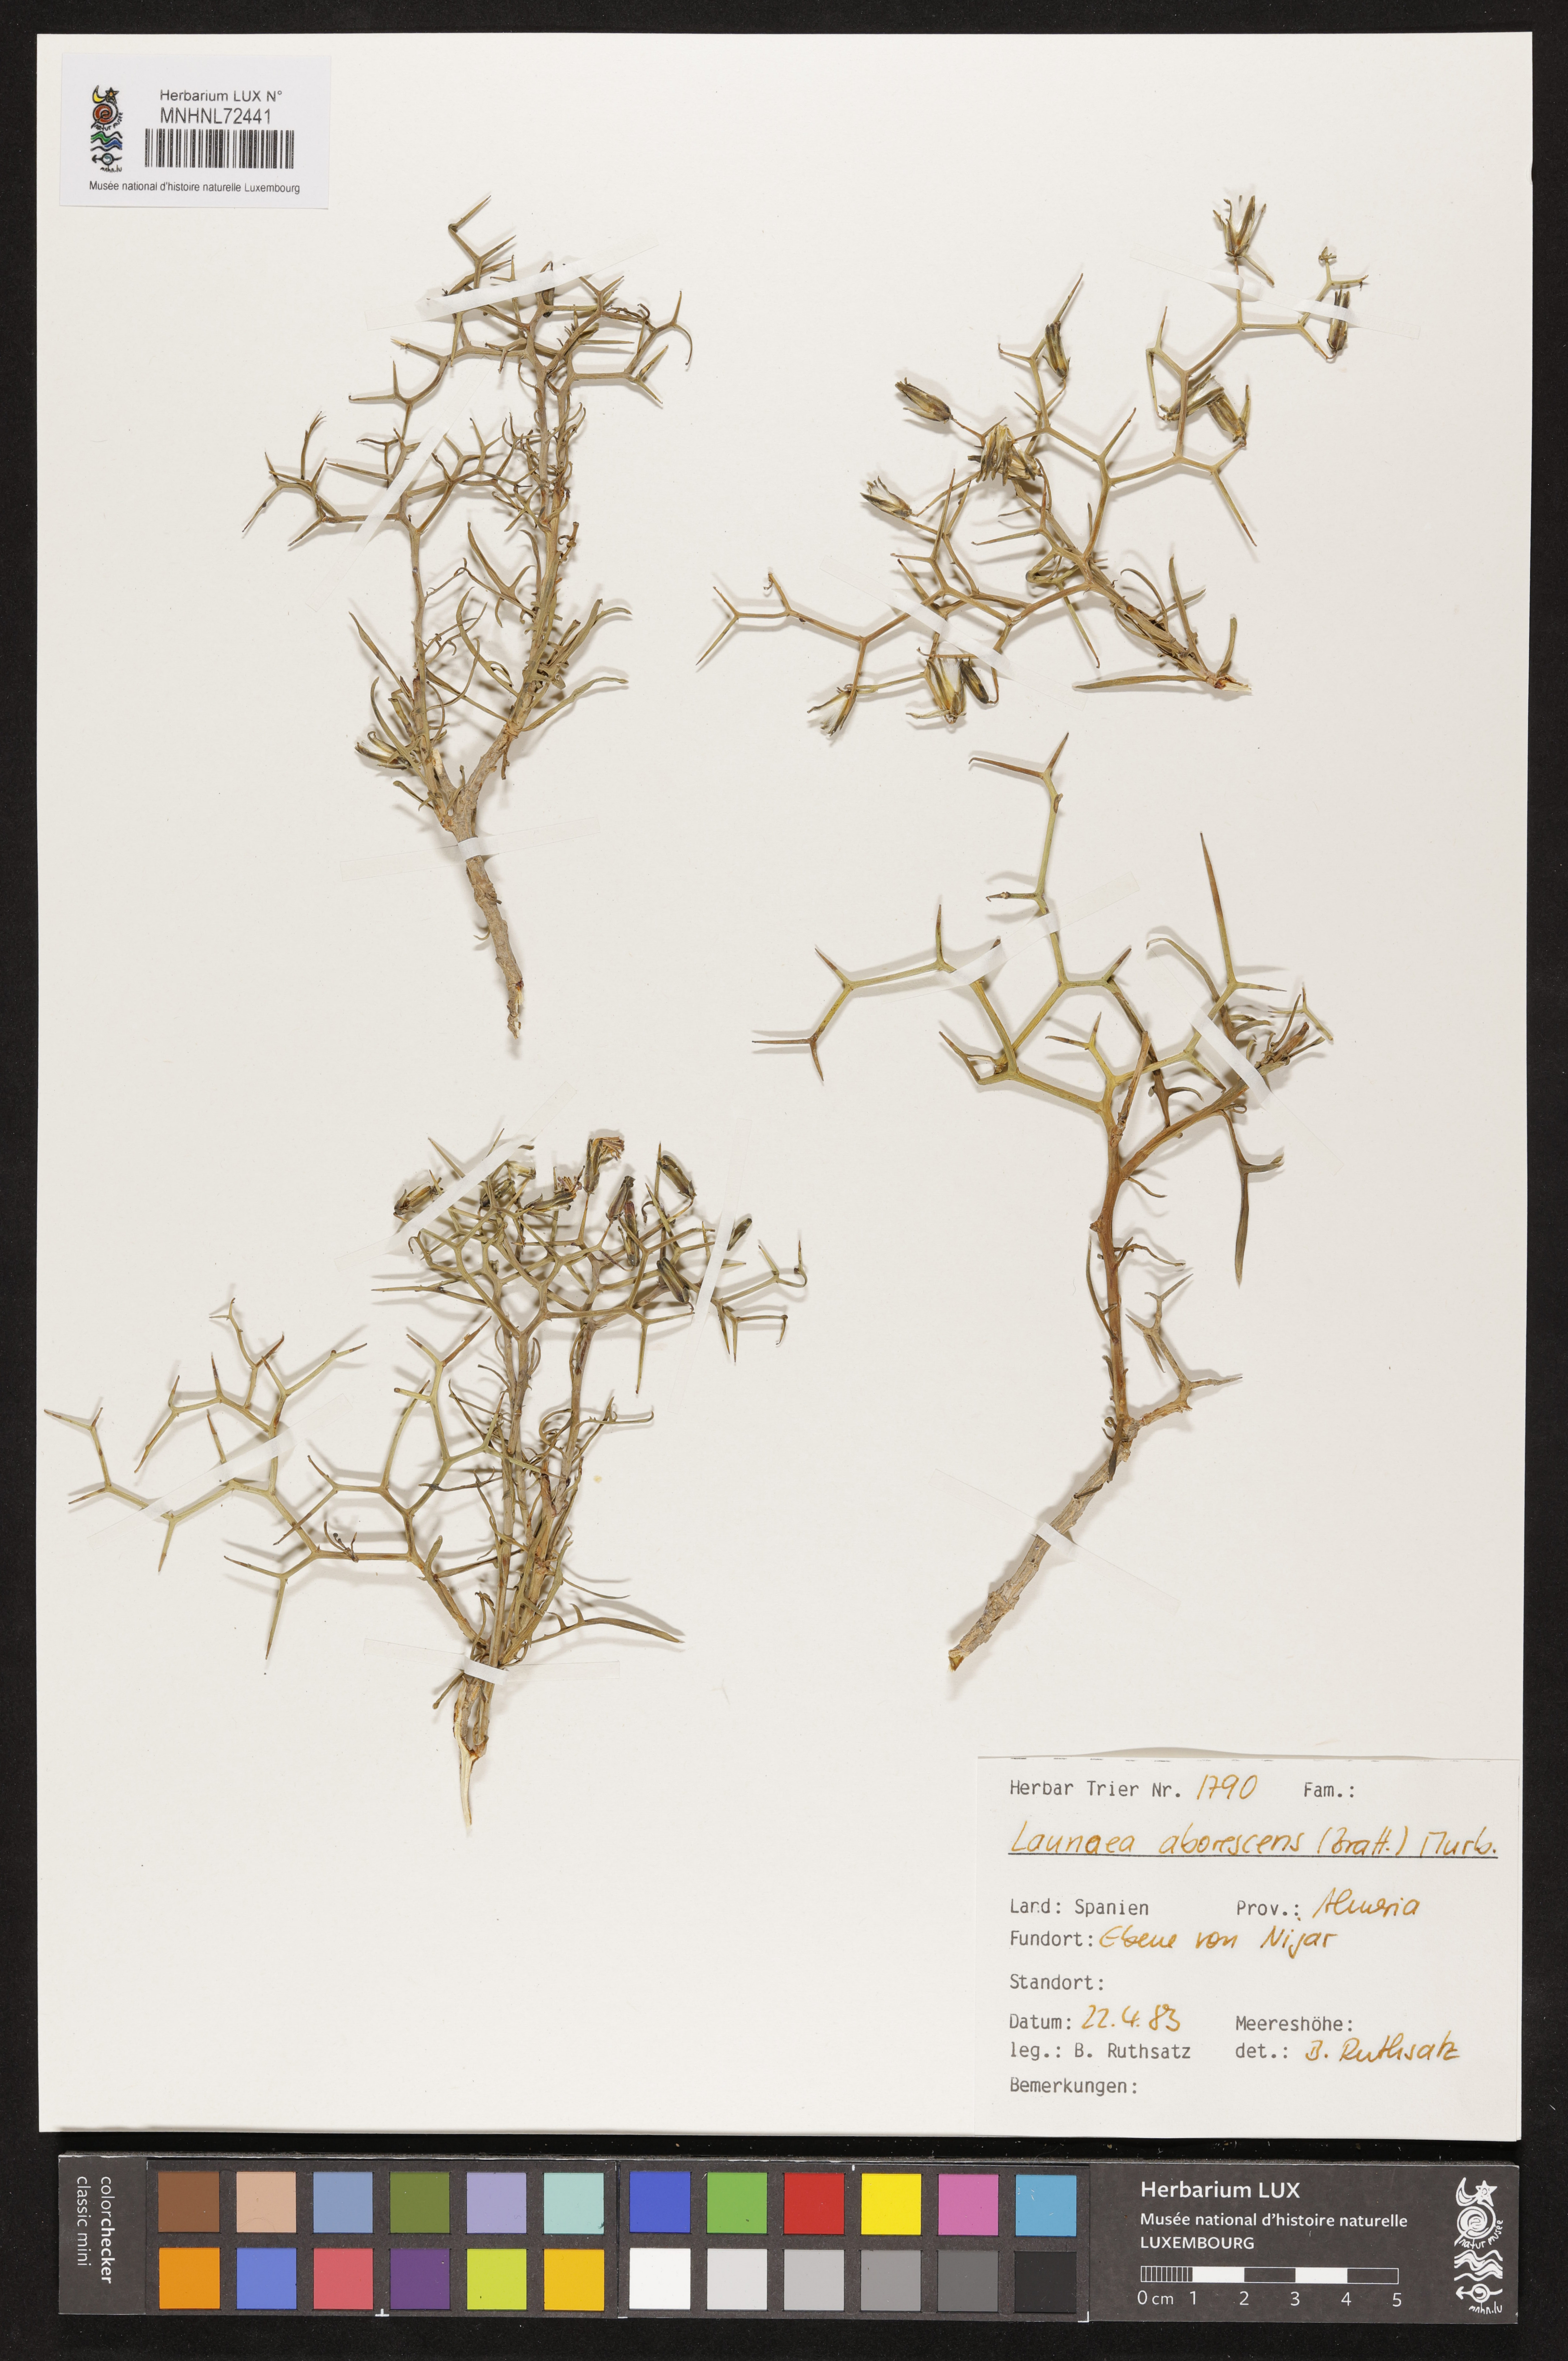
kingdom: Plantae
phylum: Tracheophyta
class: Magnoliopsida
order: Asterales
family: Asteraceae
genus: Launaea
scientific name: Launaea arborescens
